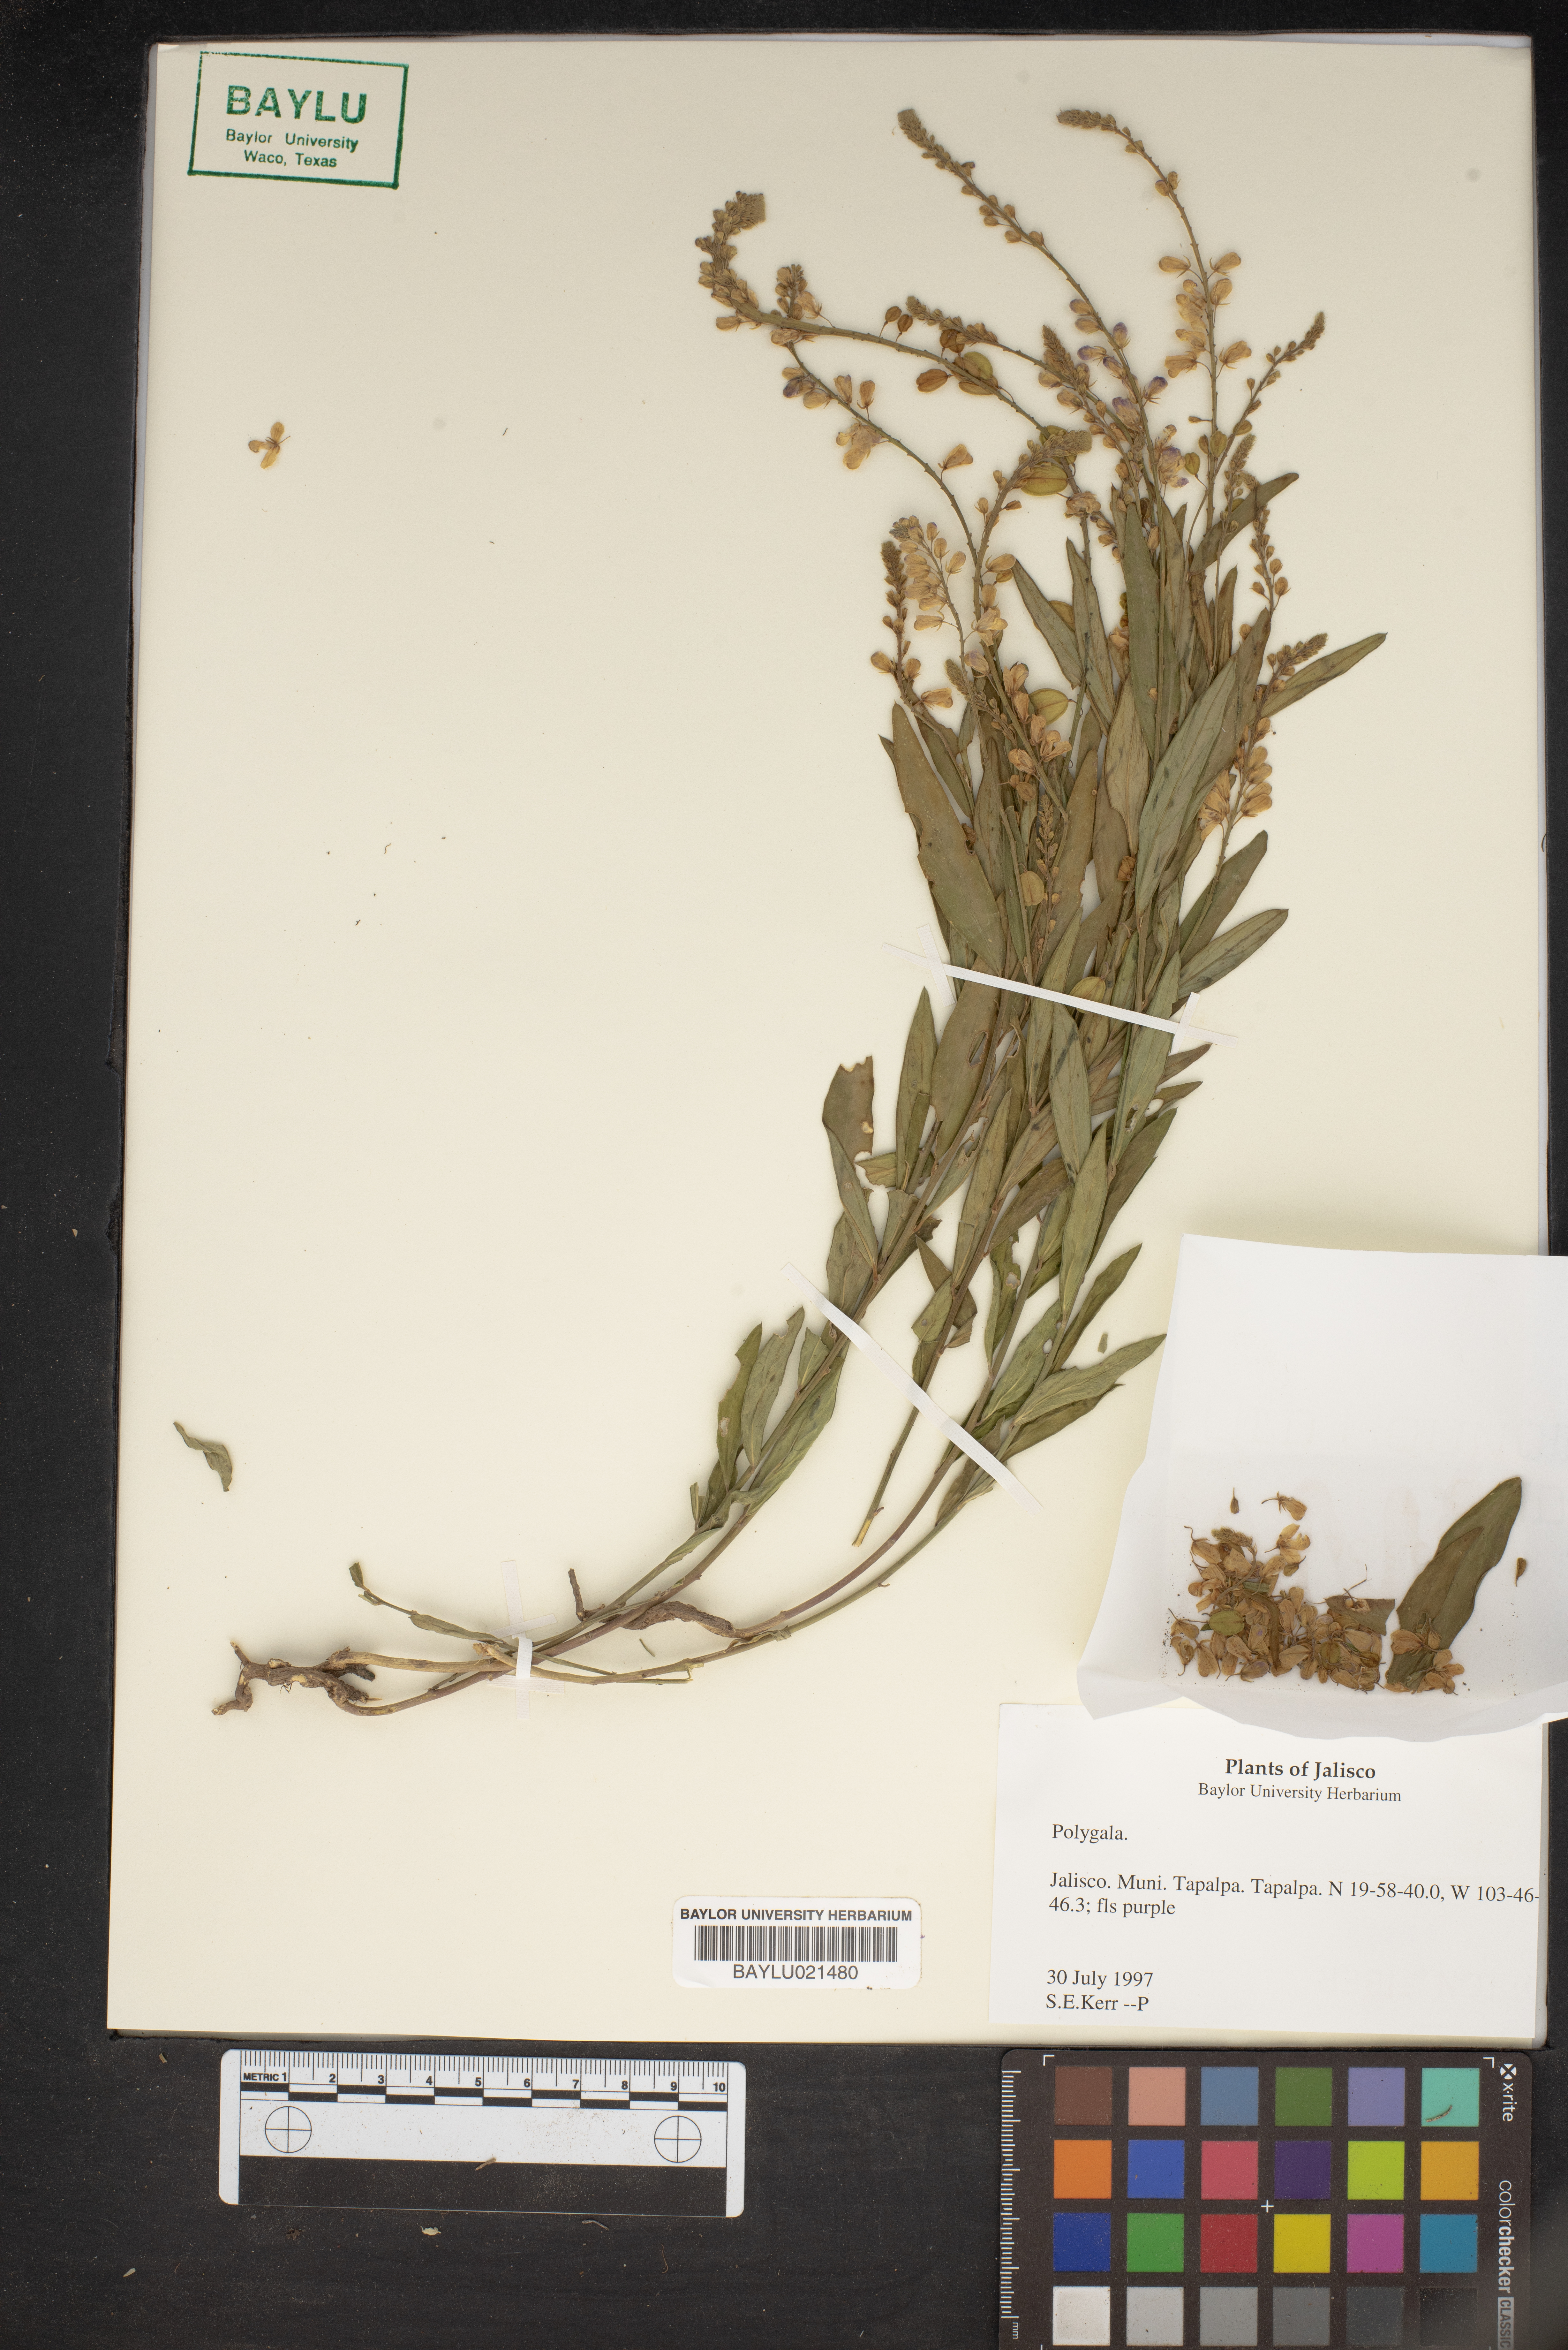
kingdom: Plantae
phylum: Tracheophyta
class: Magnoliopsida
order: Fabales
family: Polygalaceae
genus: Polygala
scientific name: Polygala
